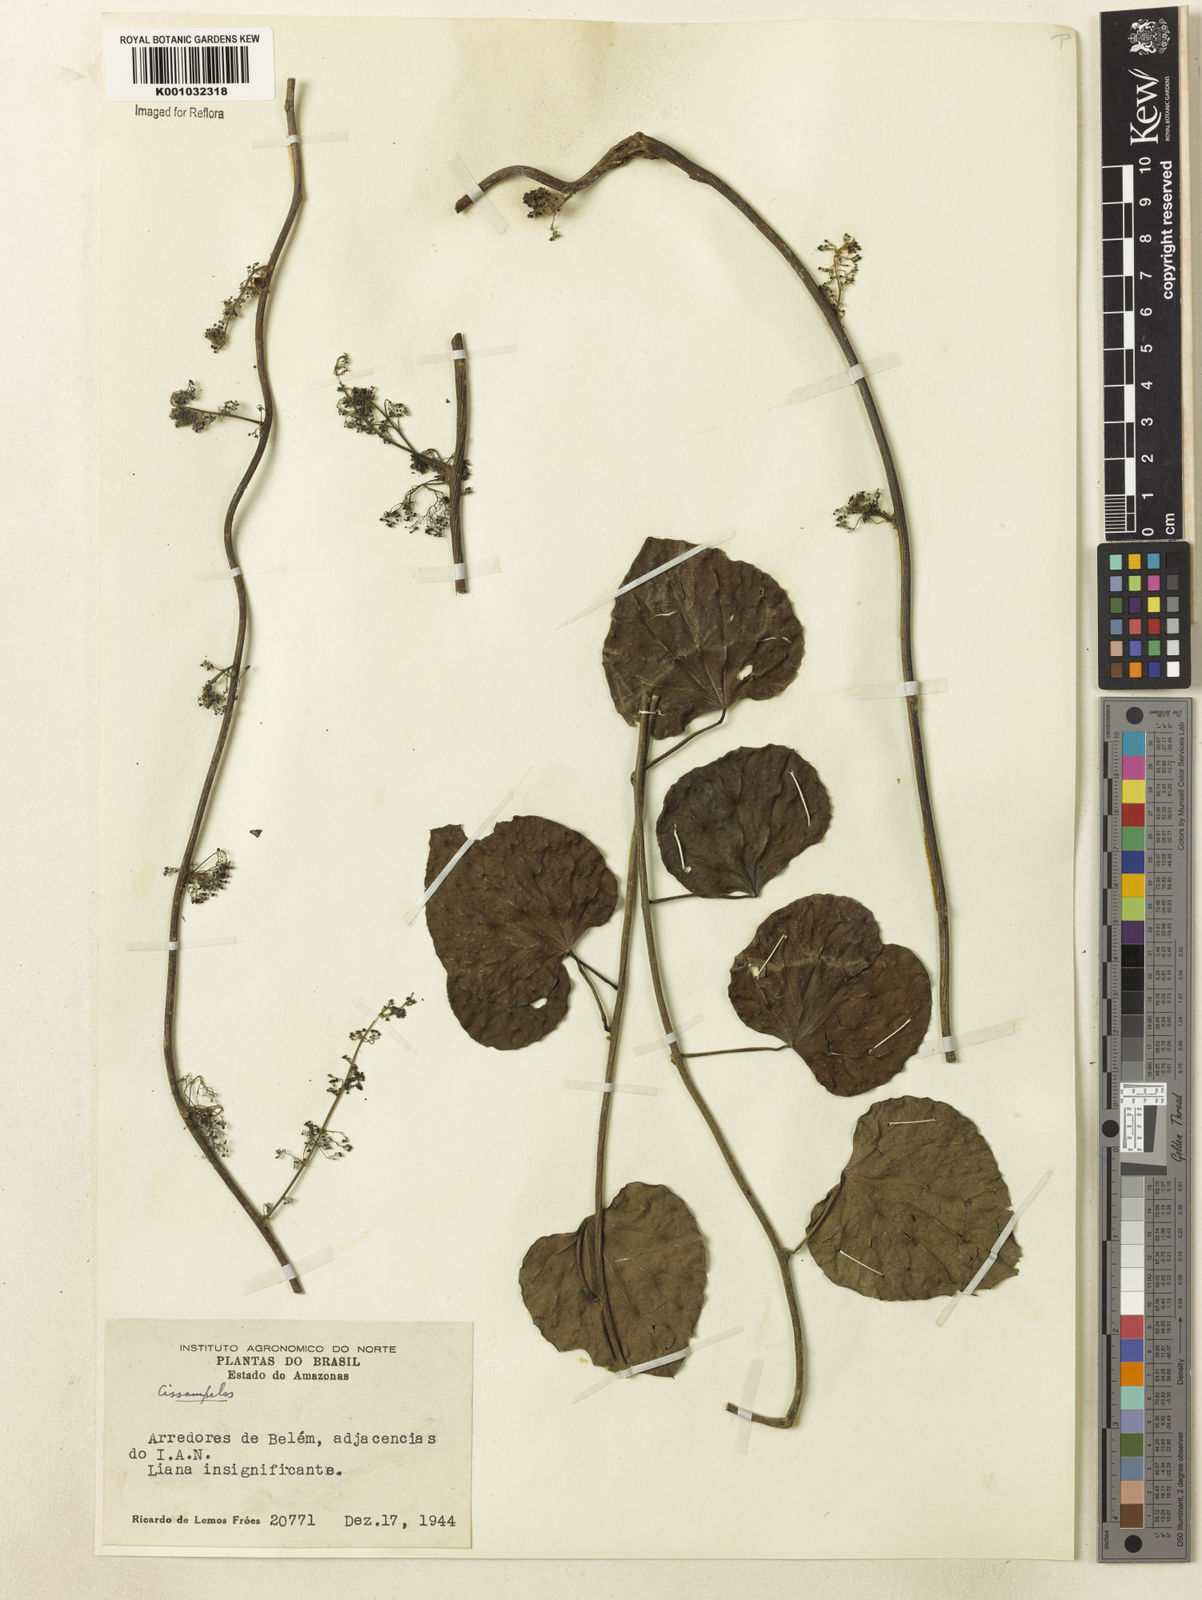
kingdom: Plantae
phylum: Tracheophyta
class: Magnoliopsida
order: Ranunculales
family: Menispermaceae
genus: Cissampelos
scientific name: Cissampelos
